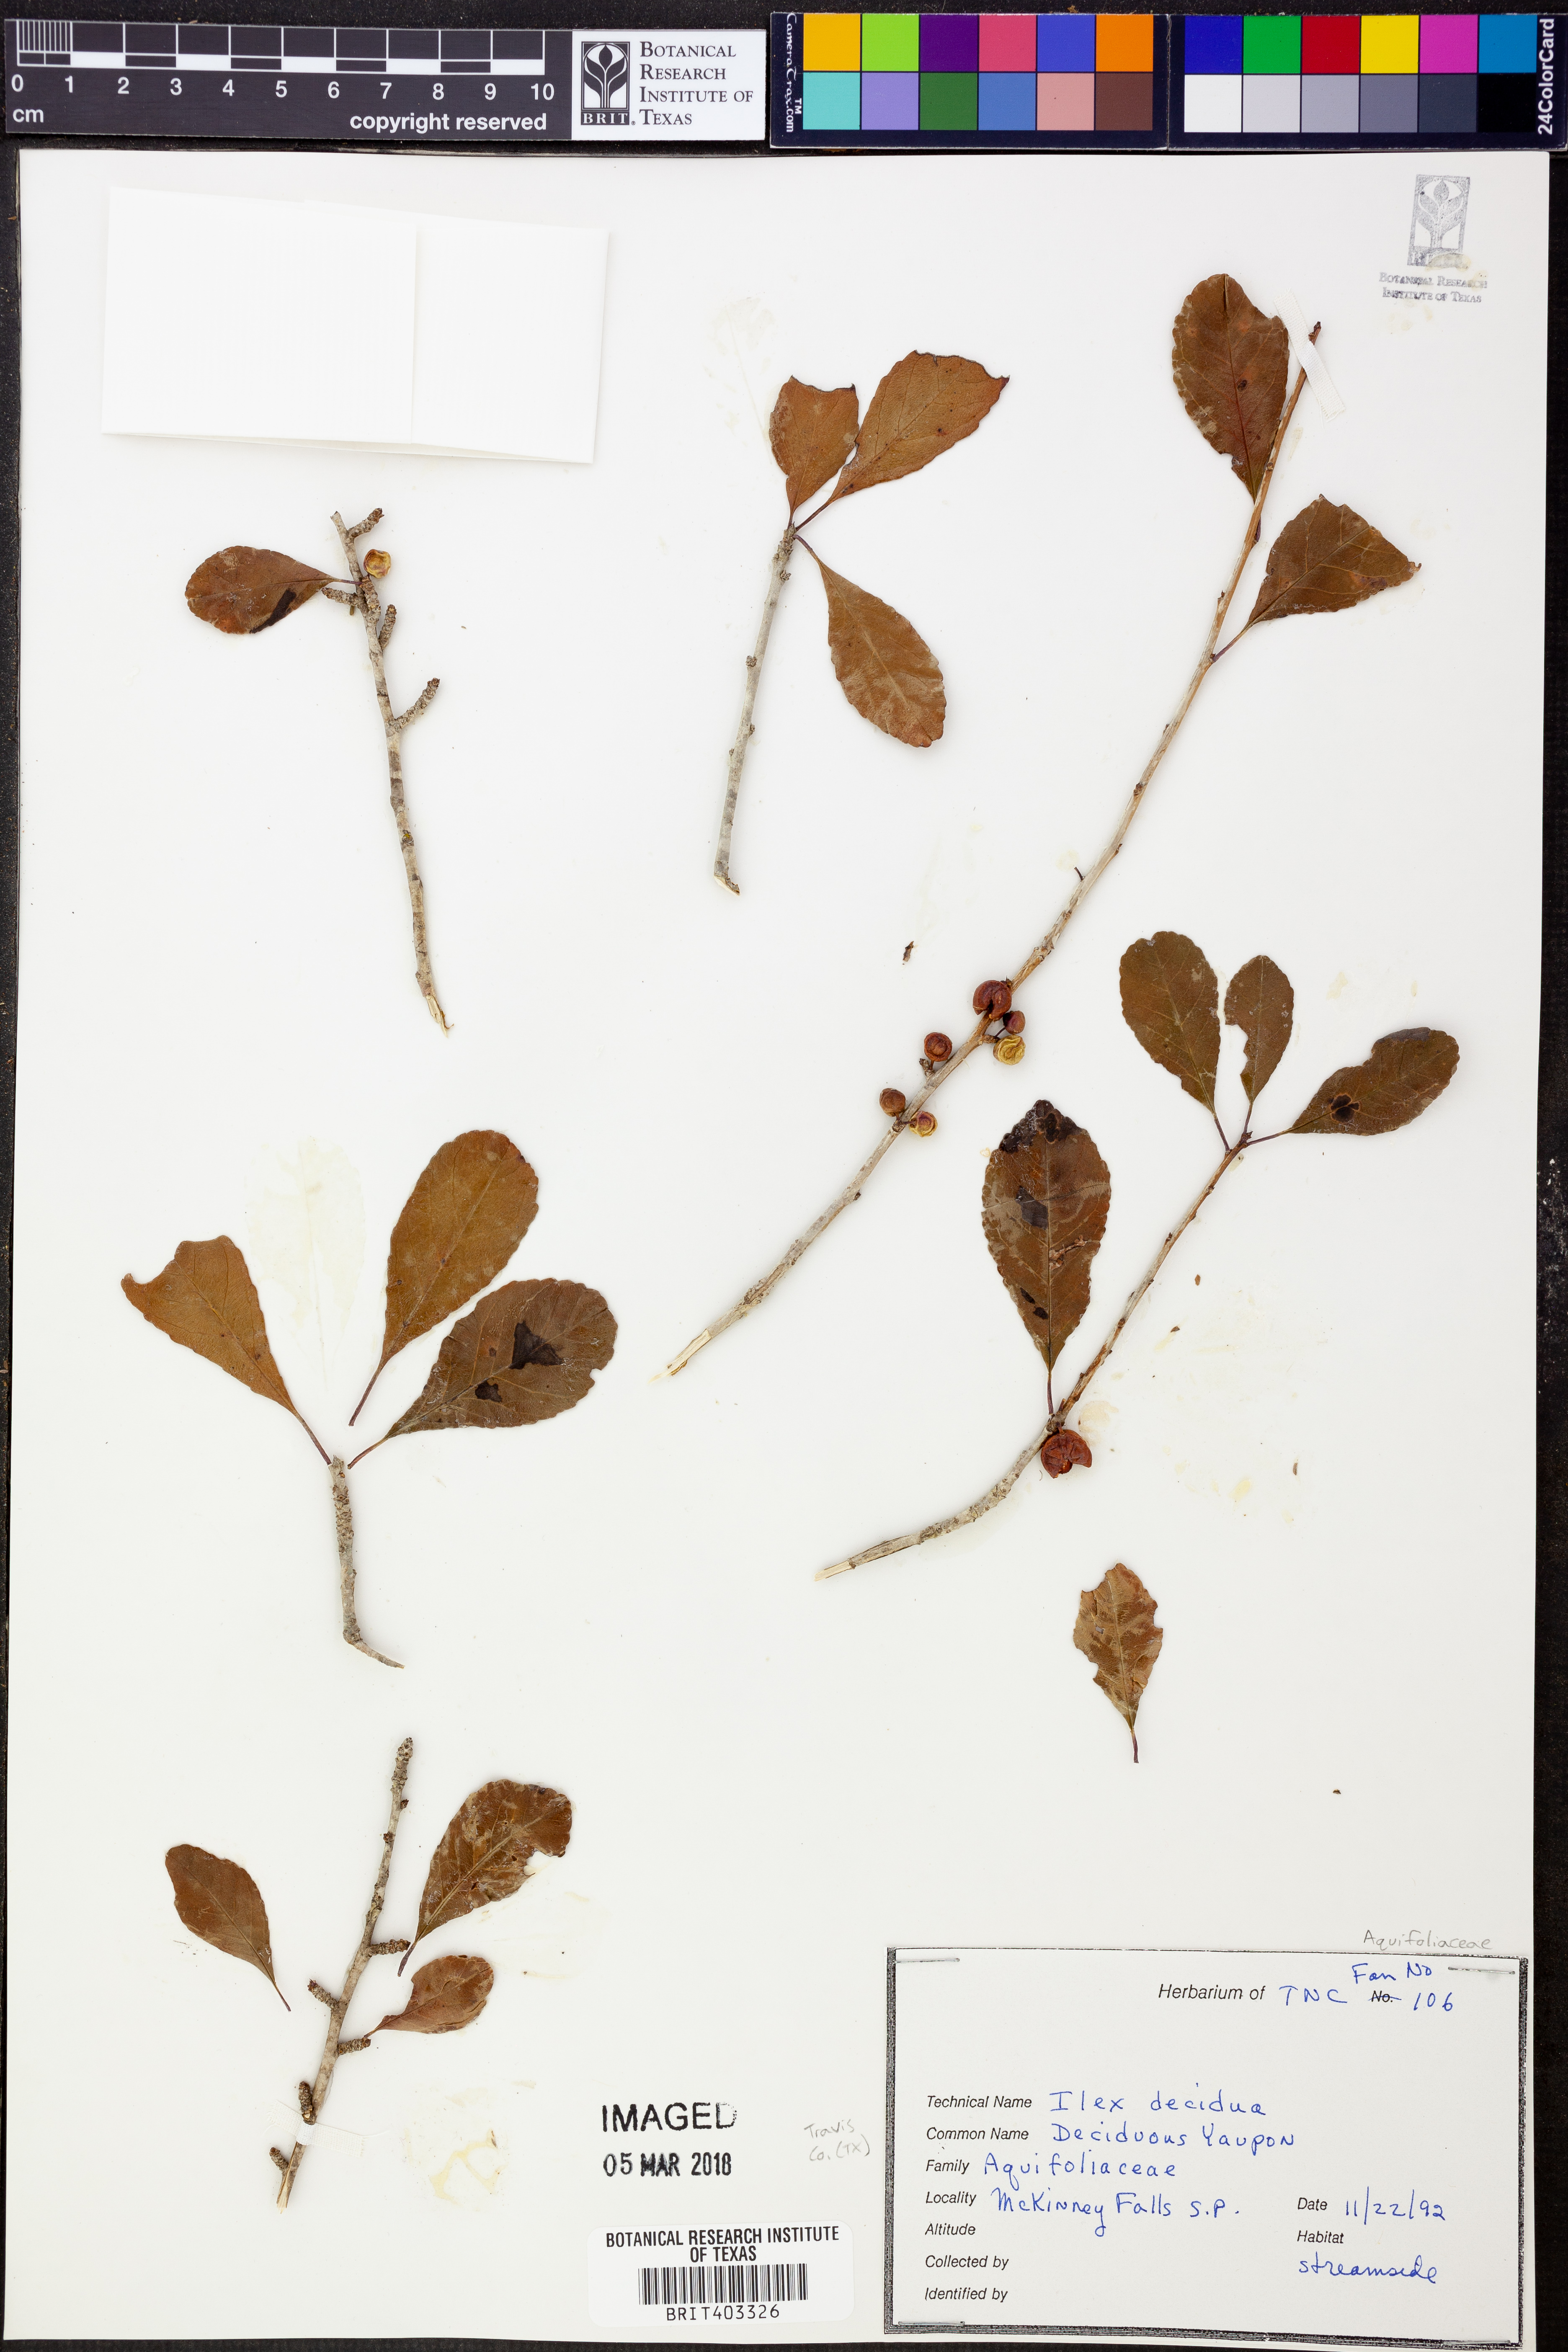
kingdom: Plantae
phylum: Tracheophyta
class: Magnoliopsida
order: Aquifoliales
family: Aquifoliaceae
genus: Ilex
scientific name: Ilex decidua
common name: Possum-haw
